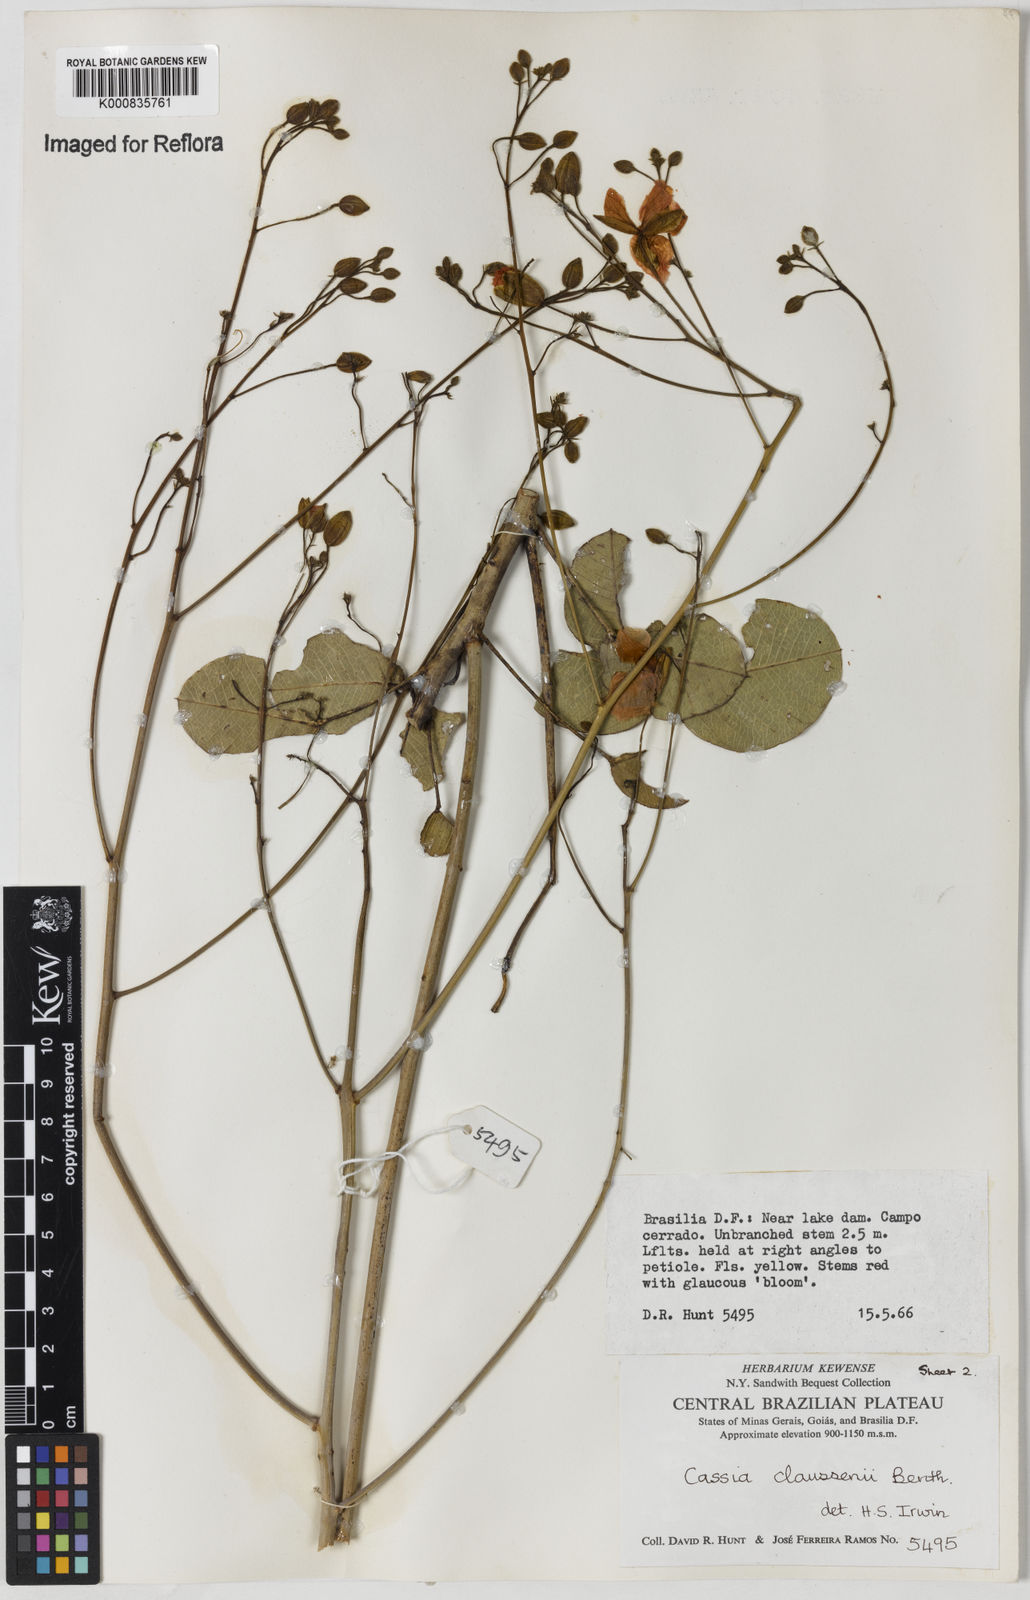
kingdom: Plantae
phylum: Tracheophyta
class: Magnoliopsida
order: Fabales
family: Fabaceae
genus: Chamaecrista
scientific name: Chamaecrista claussenii
